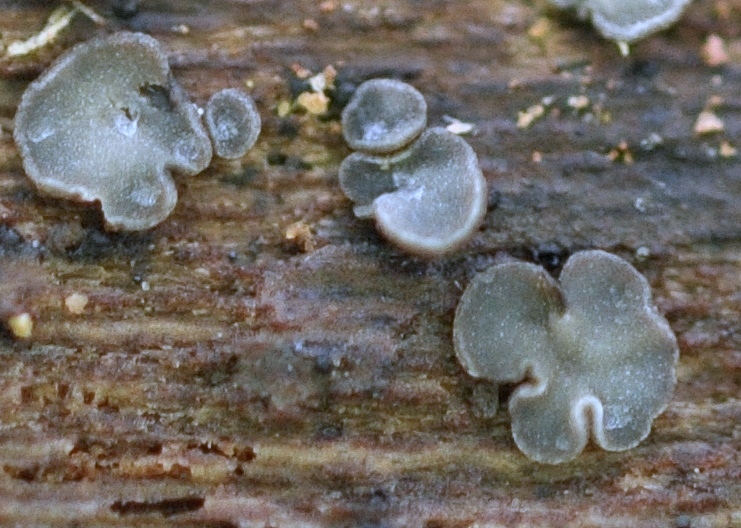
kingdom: Fungi
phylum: Ascomycota
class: Leotiomycetes
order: Helotiales
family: Mollisiaceae
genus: Mollisia
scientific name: Mollisia
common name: gråskive
